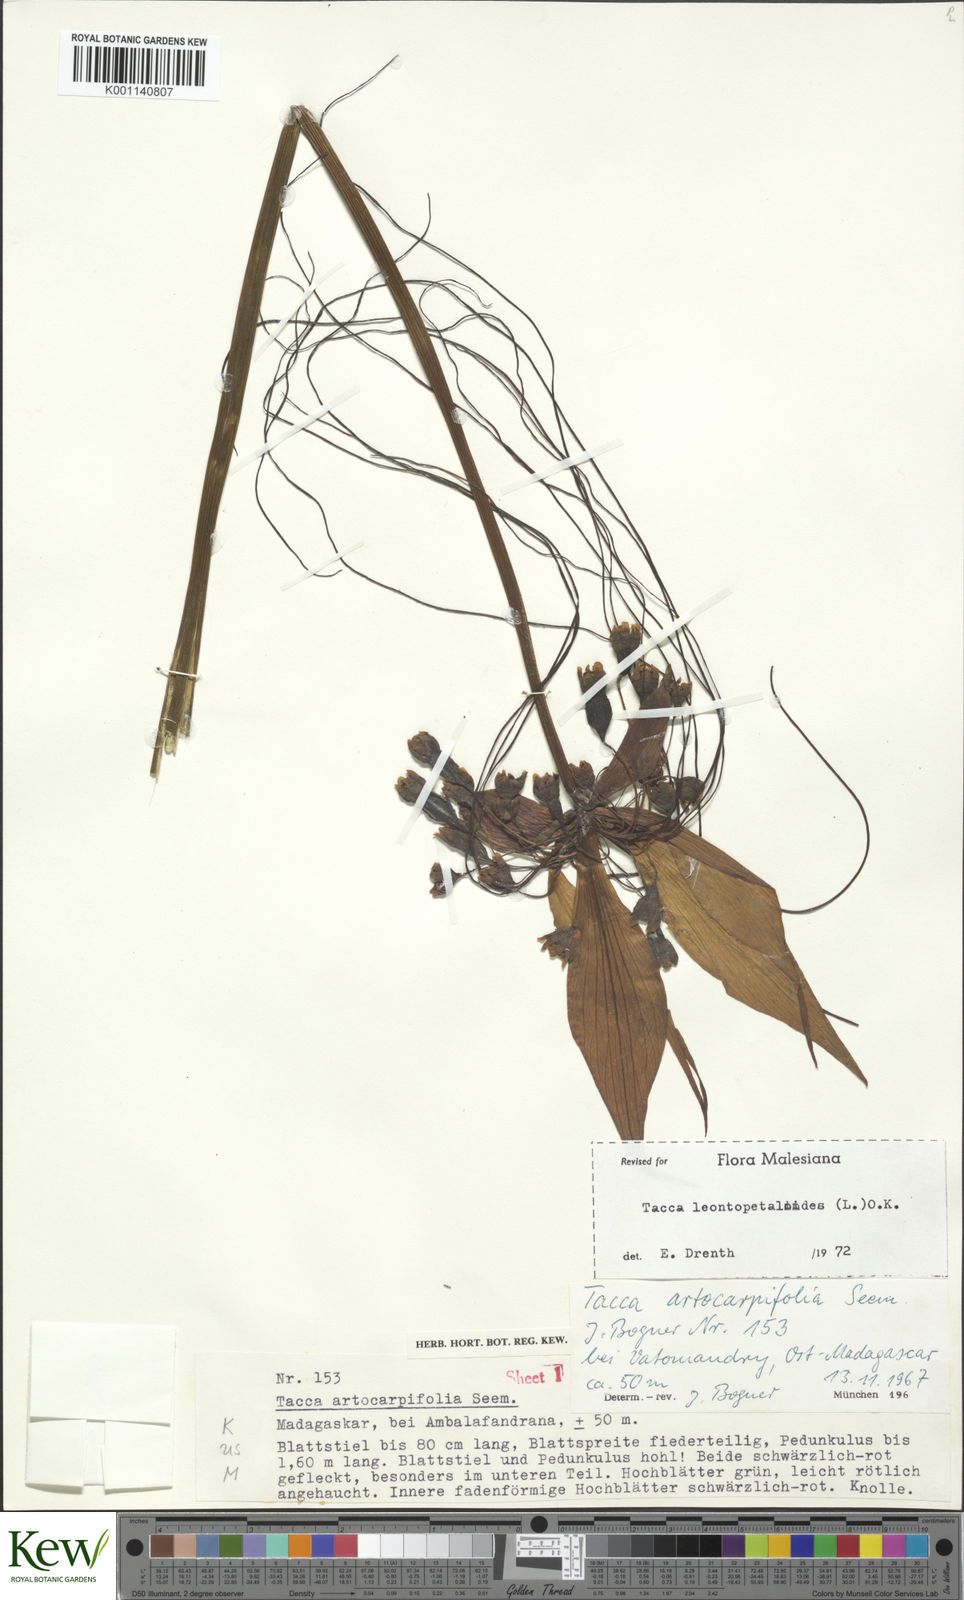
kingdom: Plantae
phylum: Tracheophyta
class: Liliopsida
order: Dioscoreales
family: Dioscoreaceae
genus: Tacca
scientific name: Tacca leontopetaloides
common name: Arrowroot
